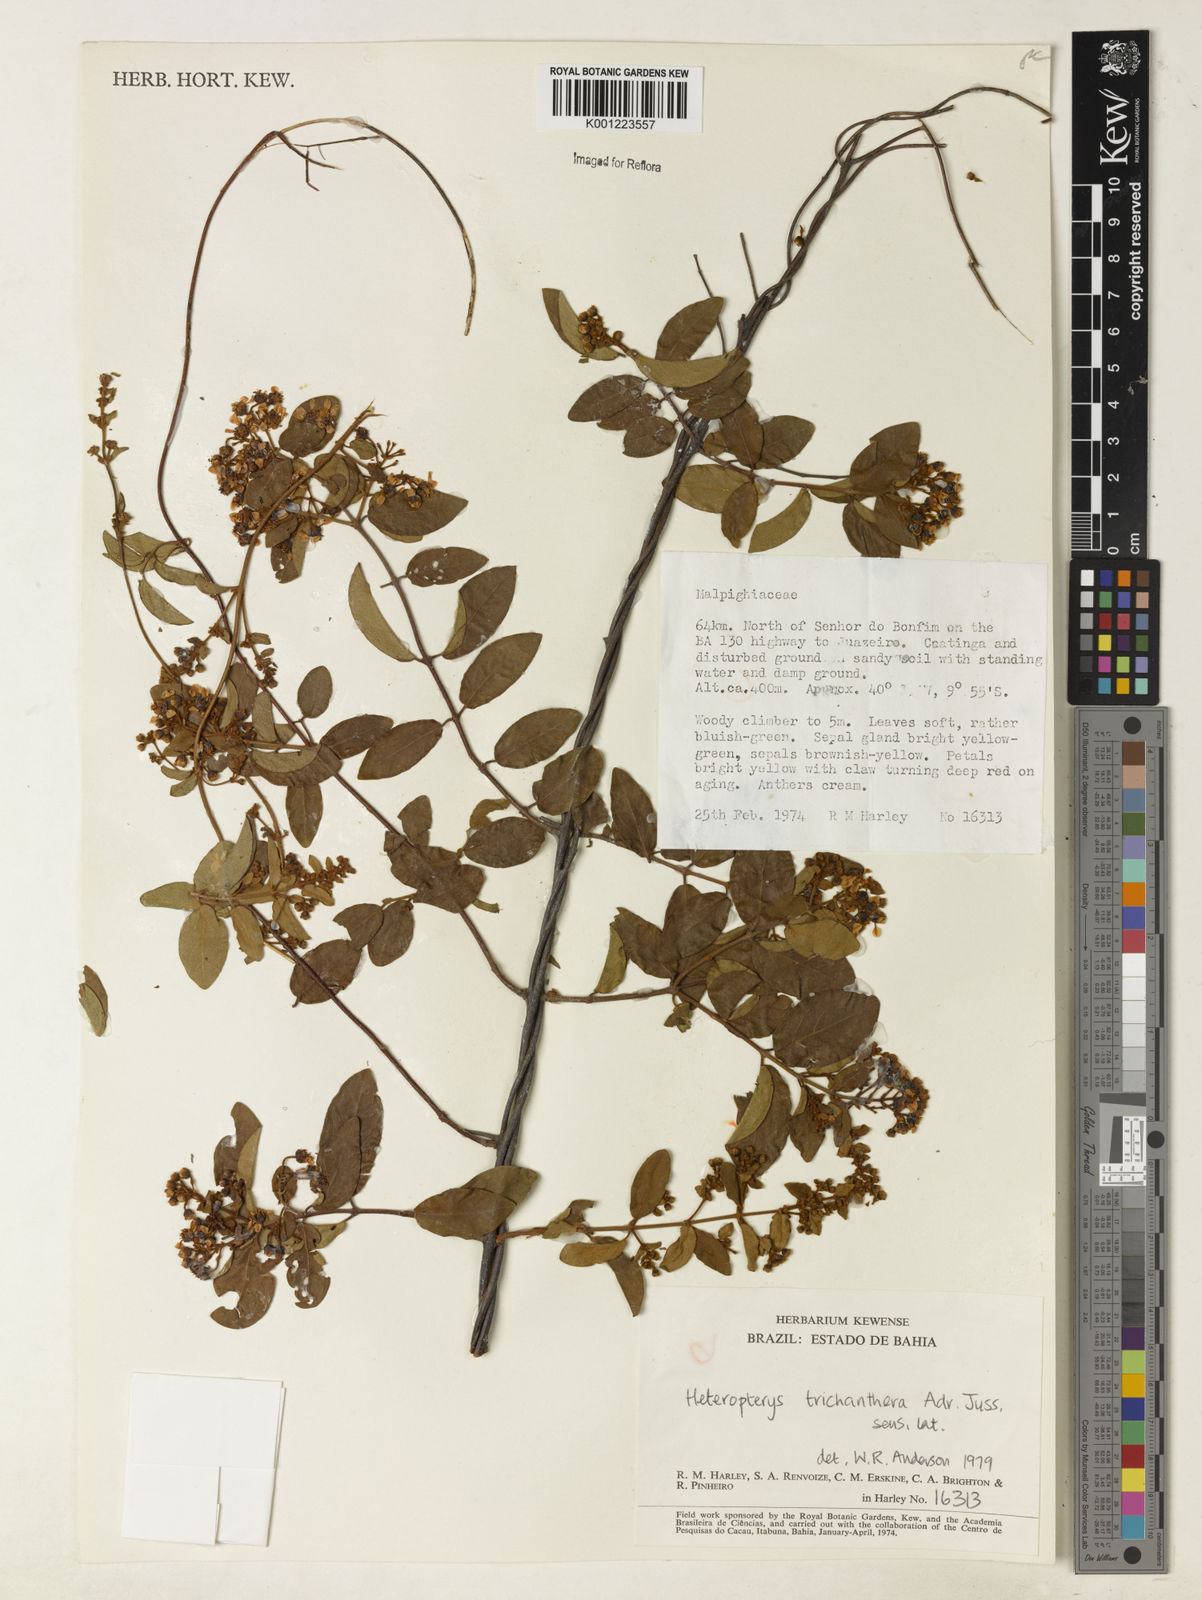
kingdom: Plantae
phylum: Tracheophyta
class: Magnoliopsida
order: Malpighiales
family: Malpighiaceae
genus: Heteropterys
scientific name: Heteropterys trichanthera
